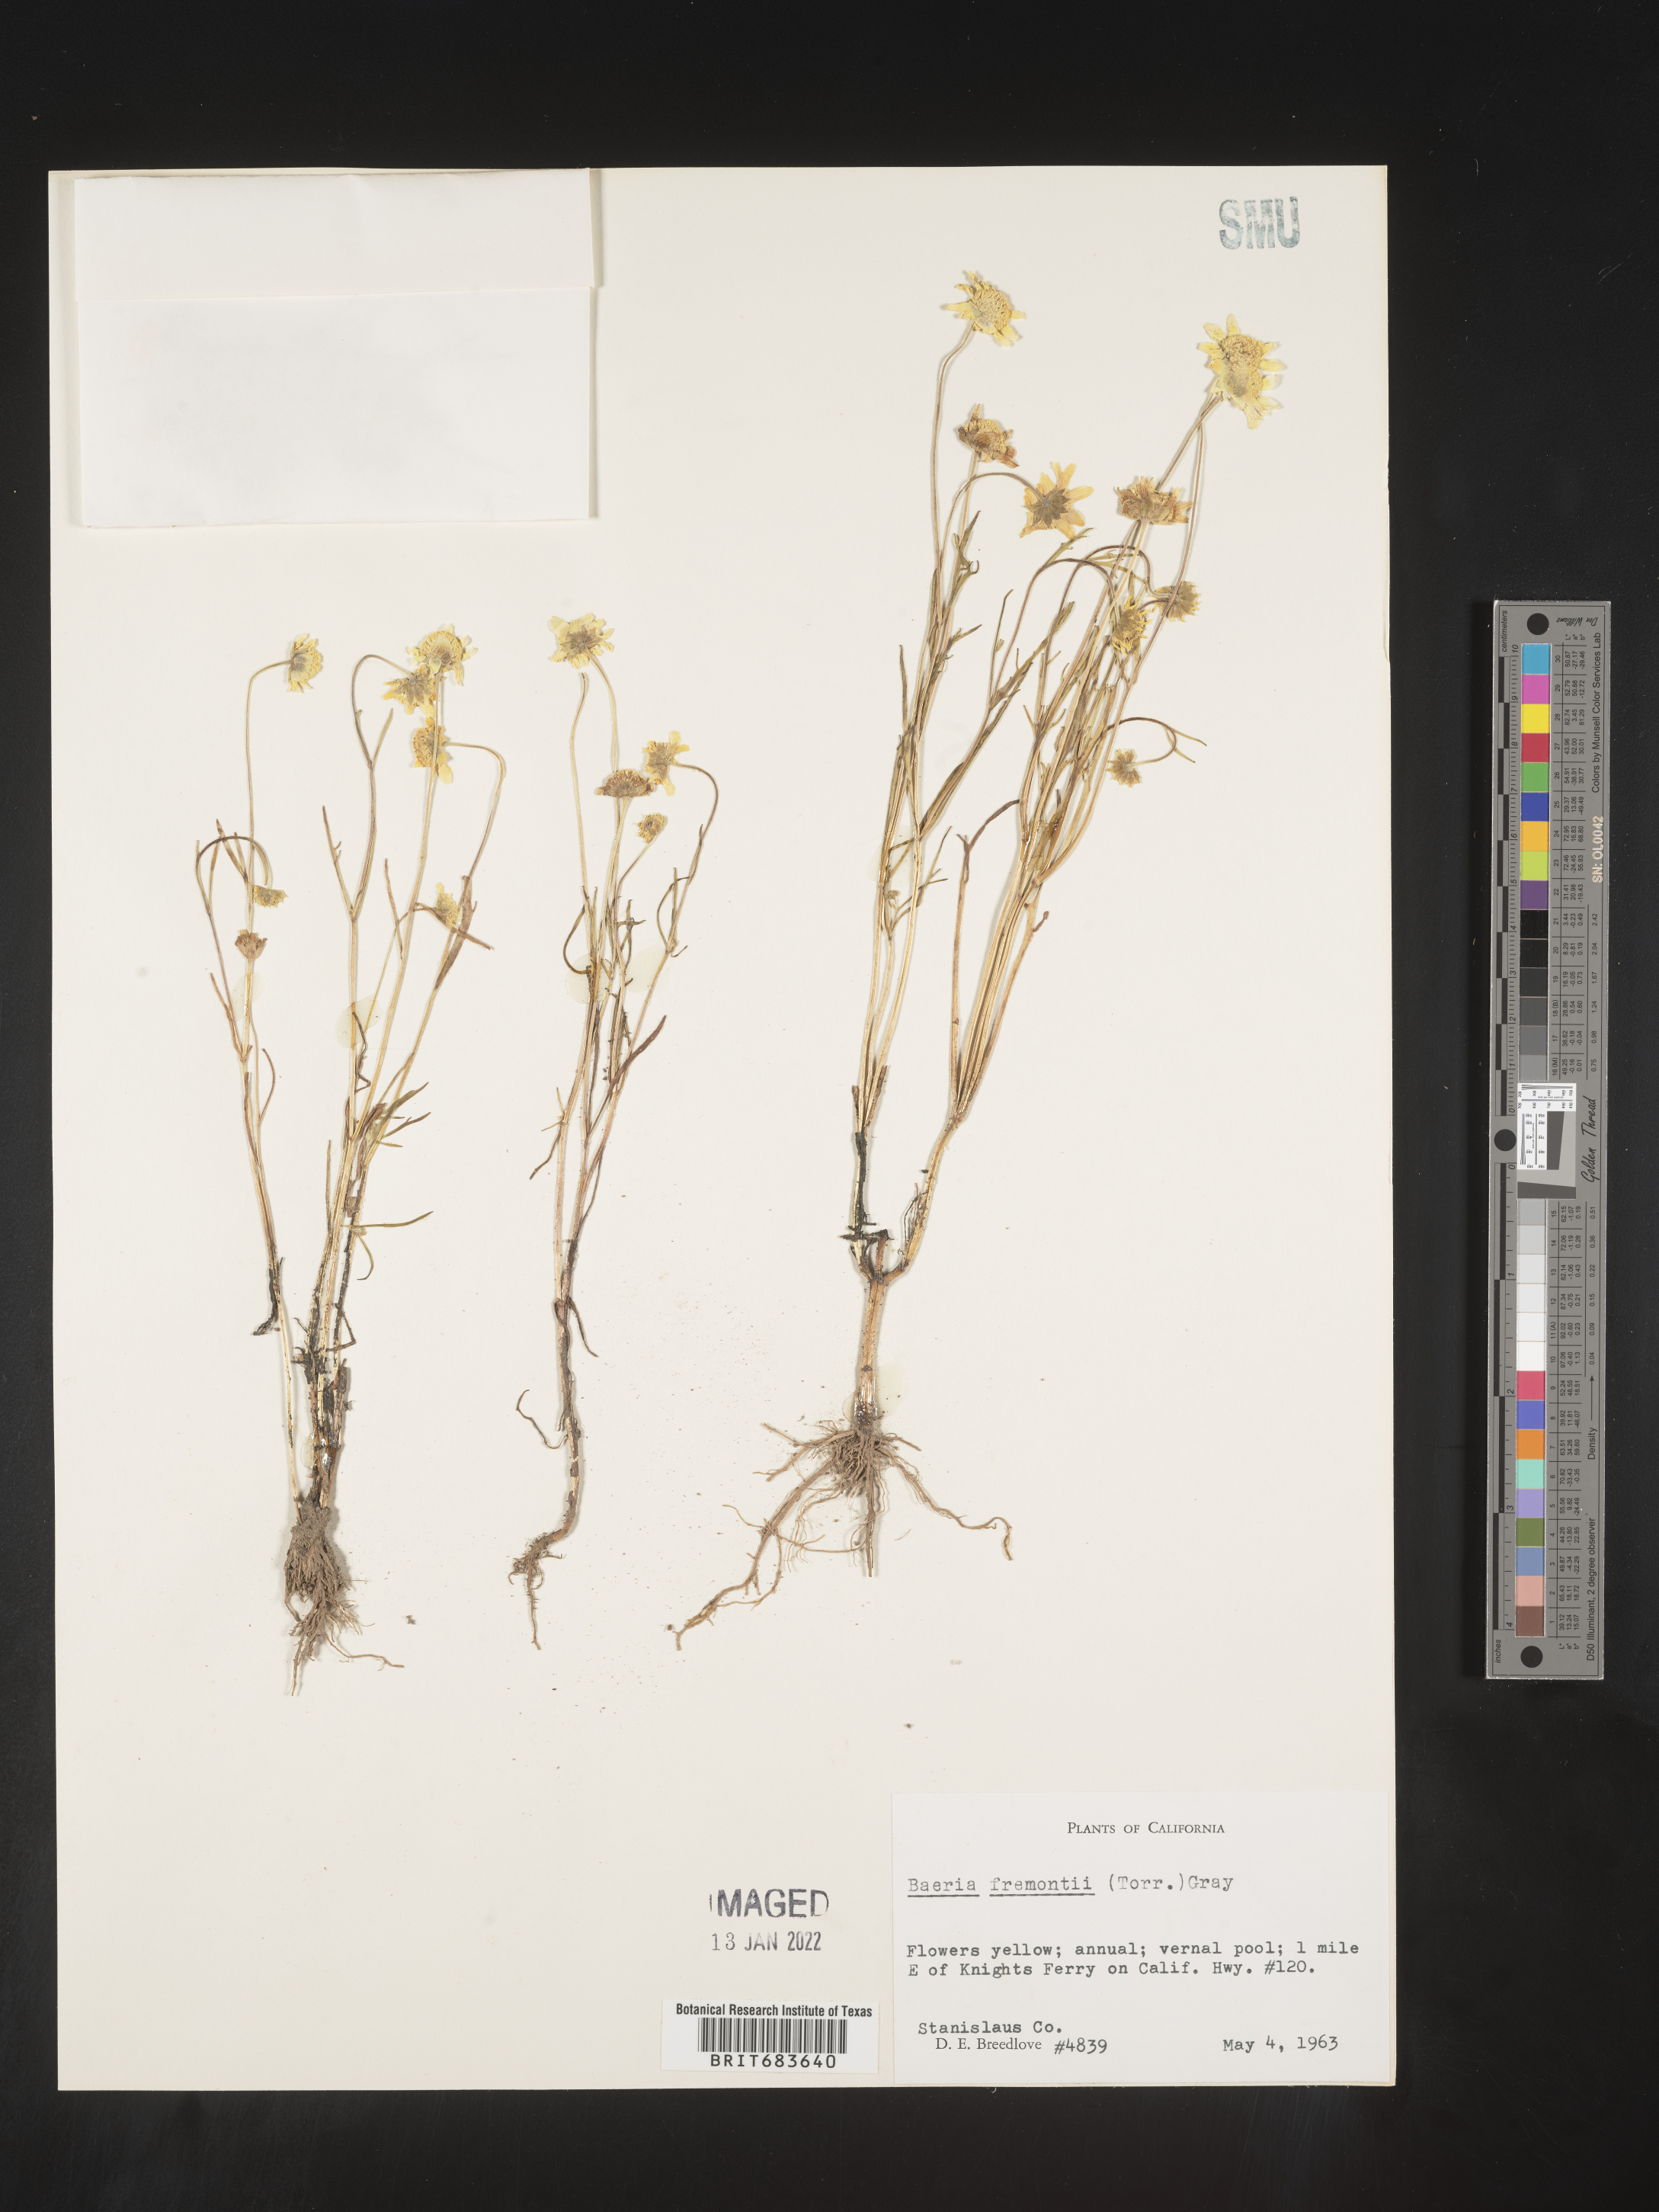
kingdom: Plantae
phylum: Tracheophyta
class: Magnoliopsida
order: Asterales
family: Asteraceae
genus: Lasthenia
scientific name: Lasthenia
